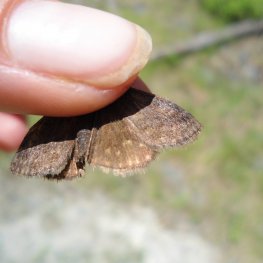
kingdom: Animalia
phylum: Arthropoda
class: Insecta
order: Lepidoptera
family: Hesperiidae
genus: Erynnis
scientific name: Erynnis icelus
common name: Dreamy Duskywing
